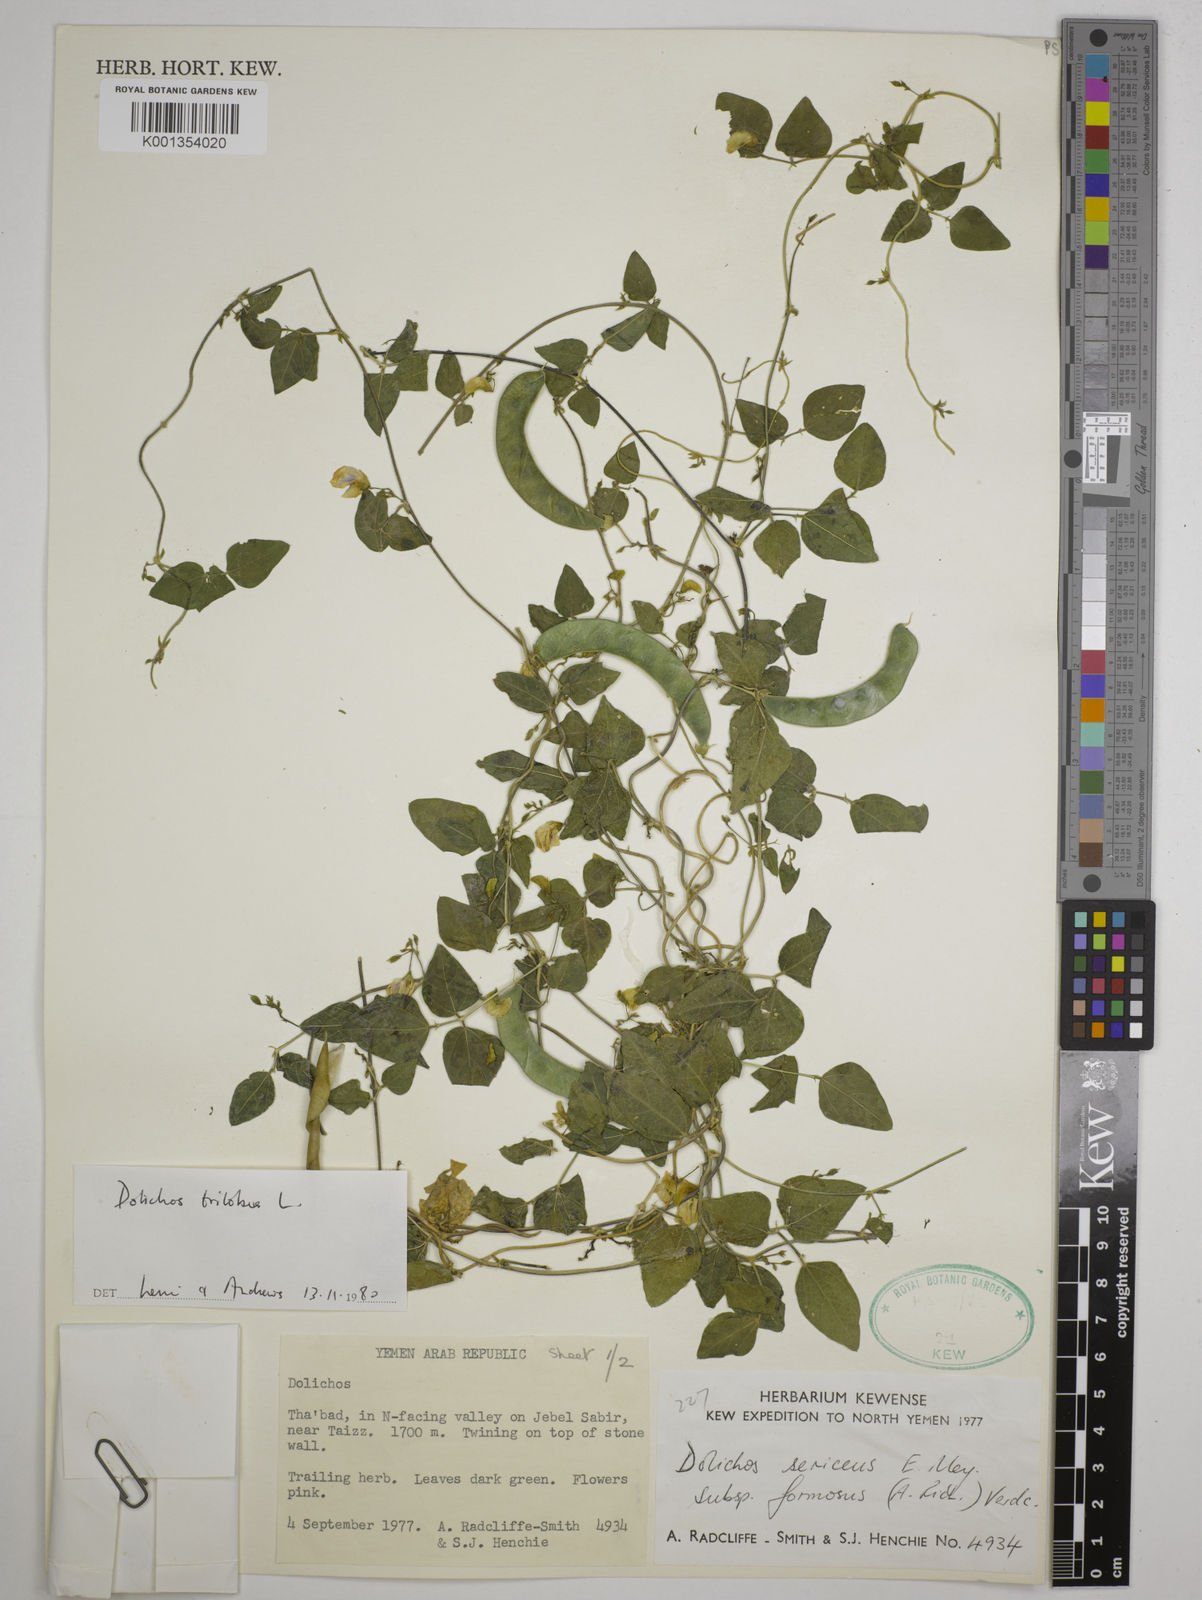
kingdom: Plantae
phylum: Tracheophyta
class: Magnoliopsida
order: Fabales
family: Fabaceae
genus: Dolichos
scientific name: Dolichos
